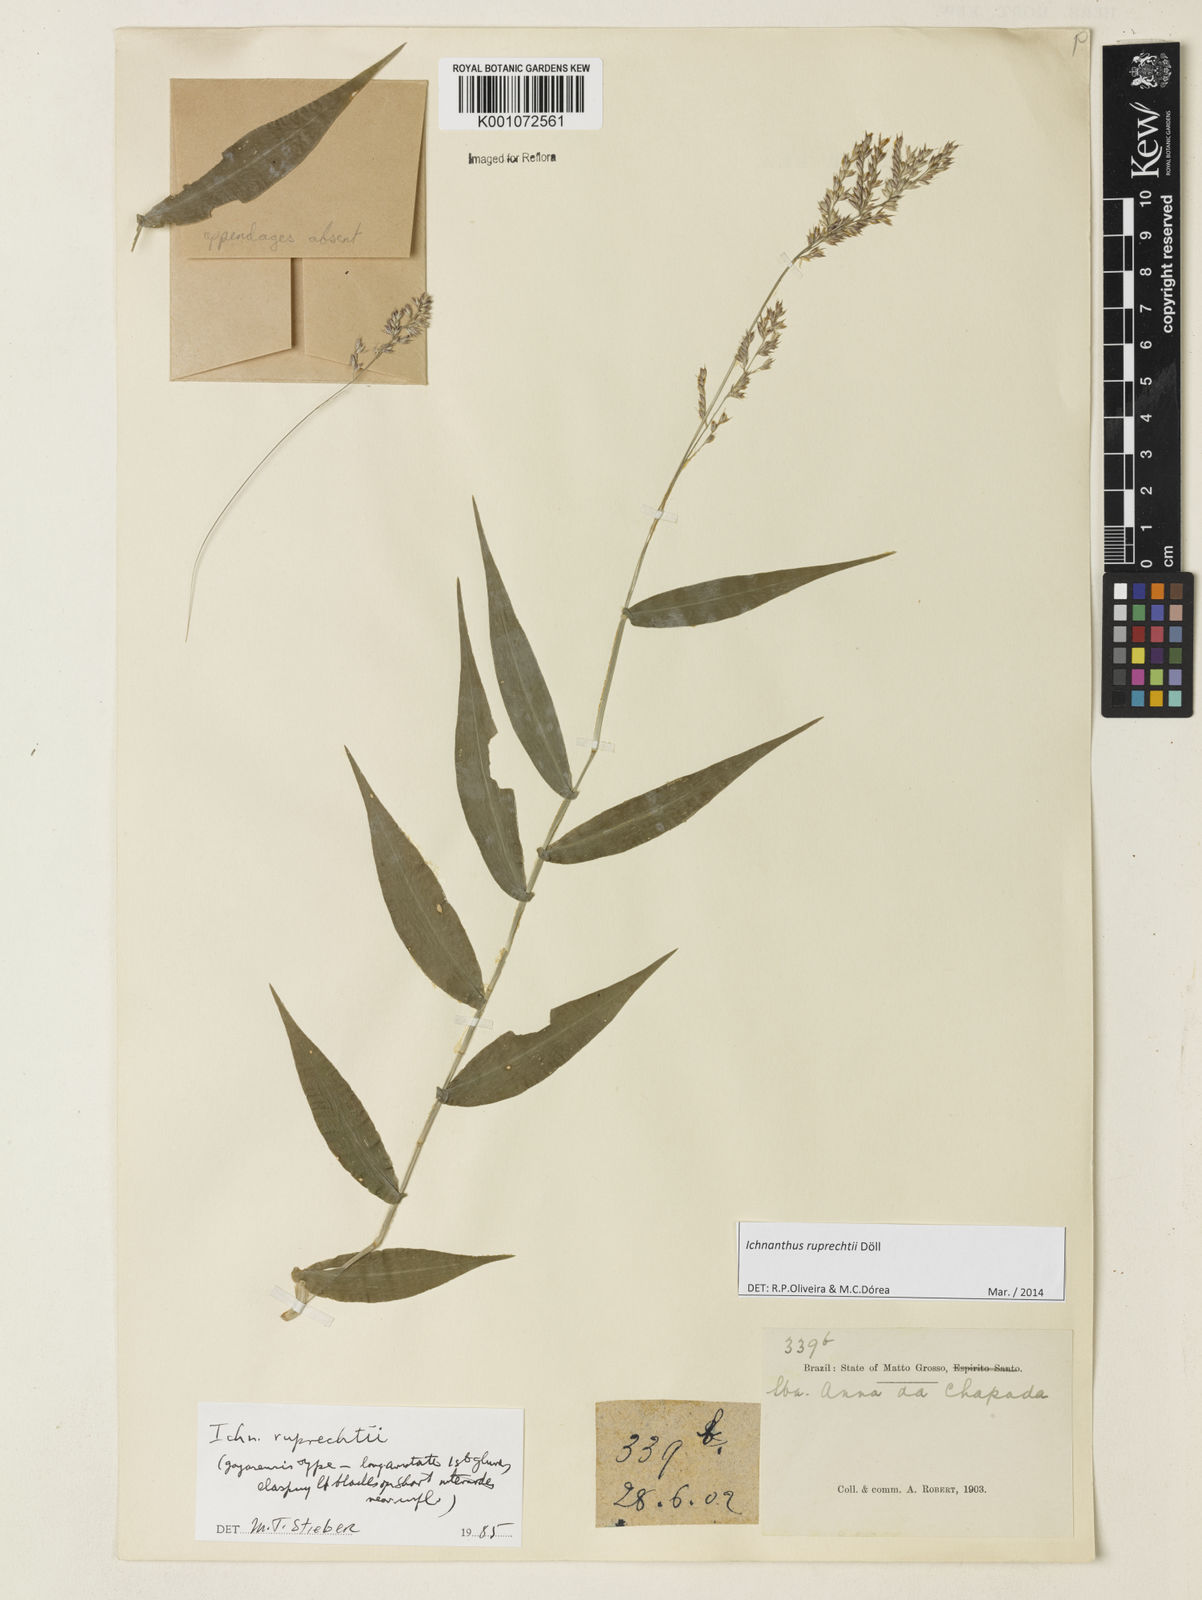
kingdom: Plantae
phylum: Tracheophyta
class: Liliopsida
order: Poales
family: Poaceae
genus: Ichnanthus
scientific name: Ichnanthus
